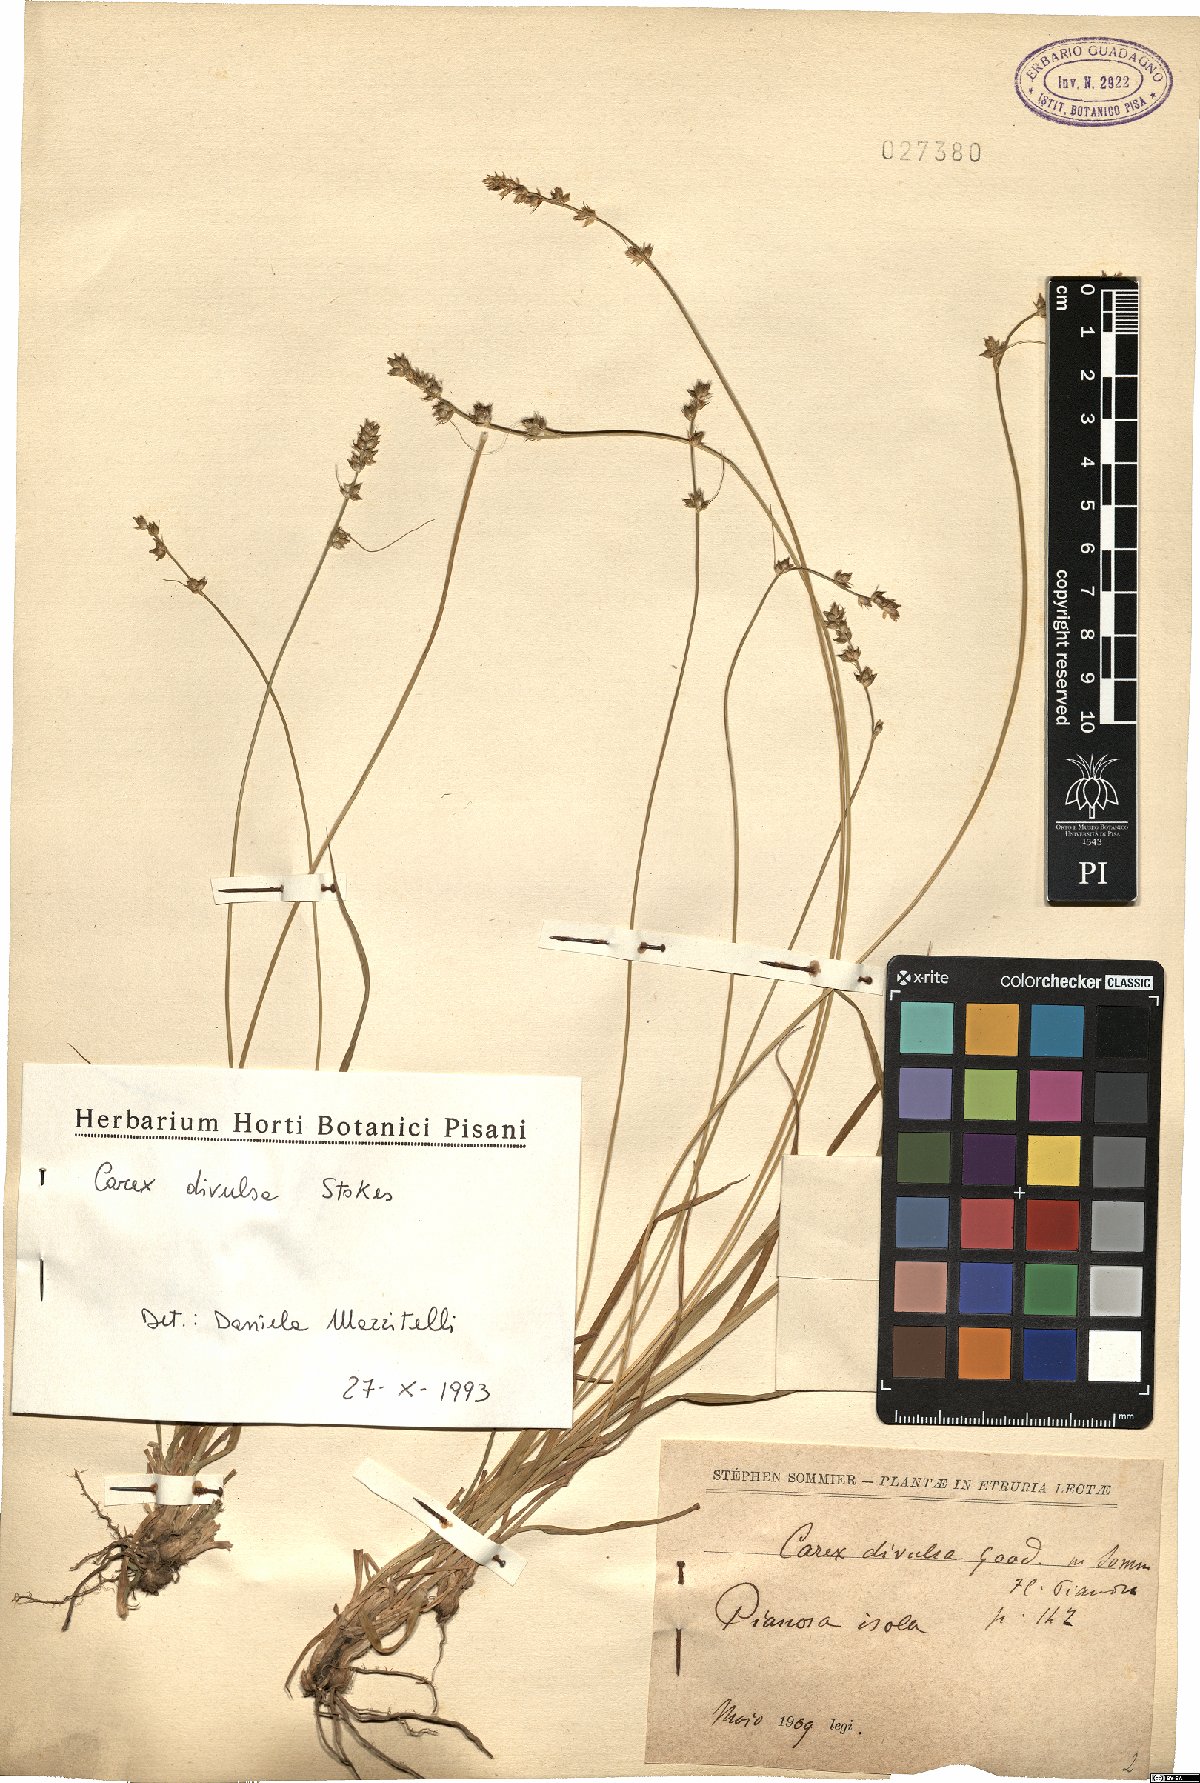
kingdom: Plantae
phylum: Tracheophyta
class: Liliopsida
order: Poales
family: Cyperaceae
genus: Carex
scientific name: Carex divulsa
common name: Grassland sedge
